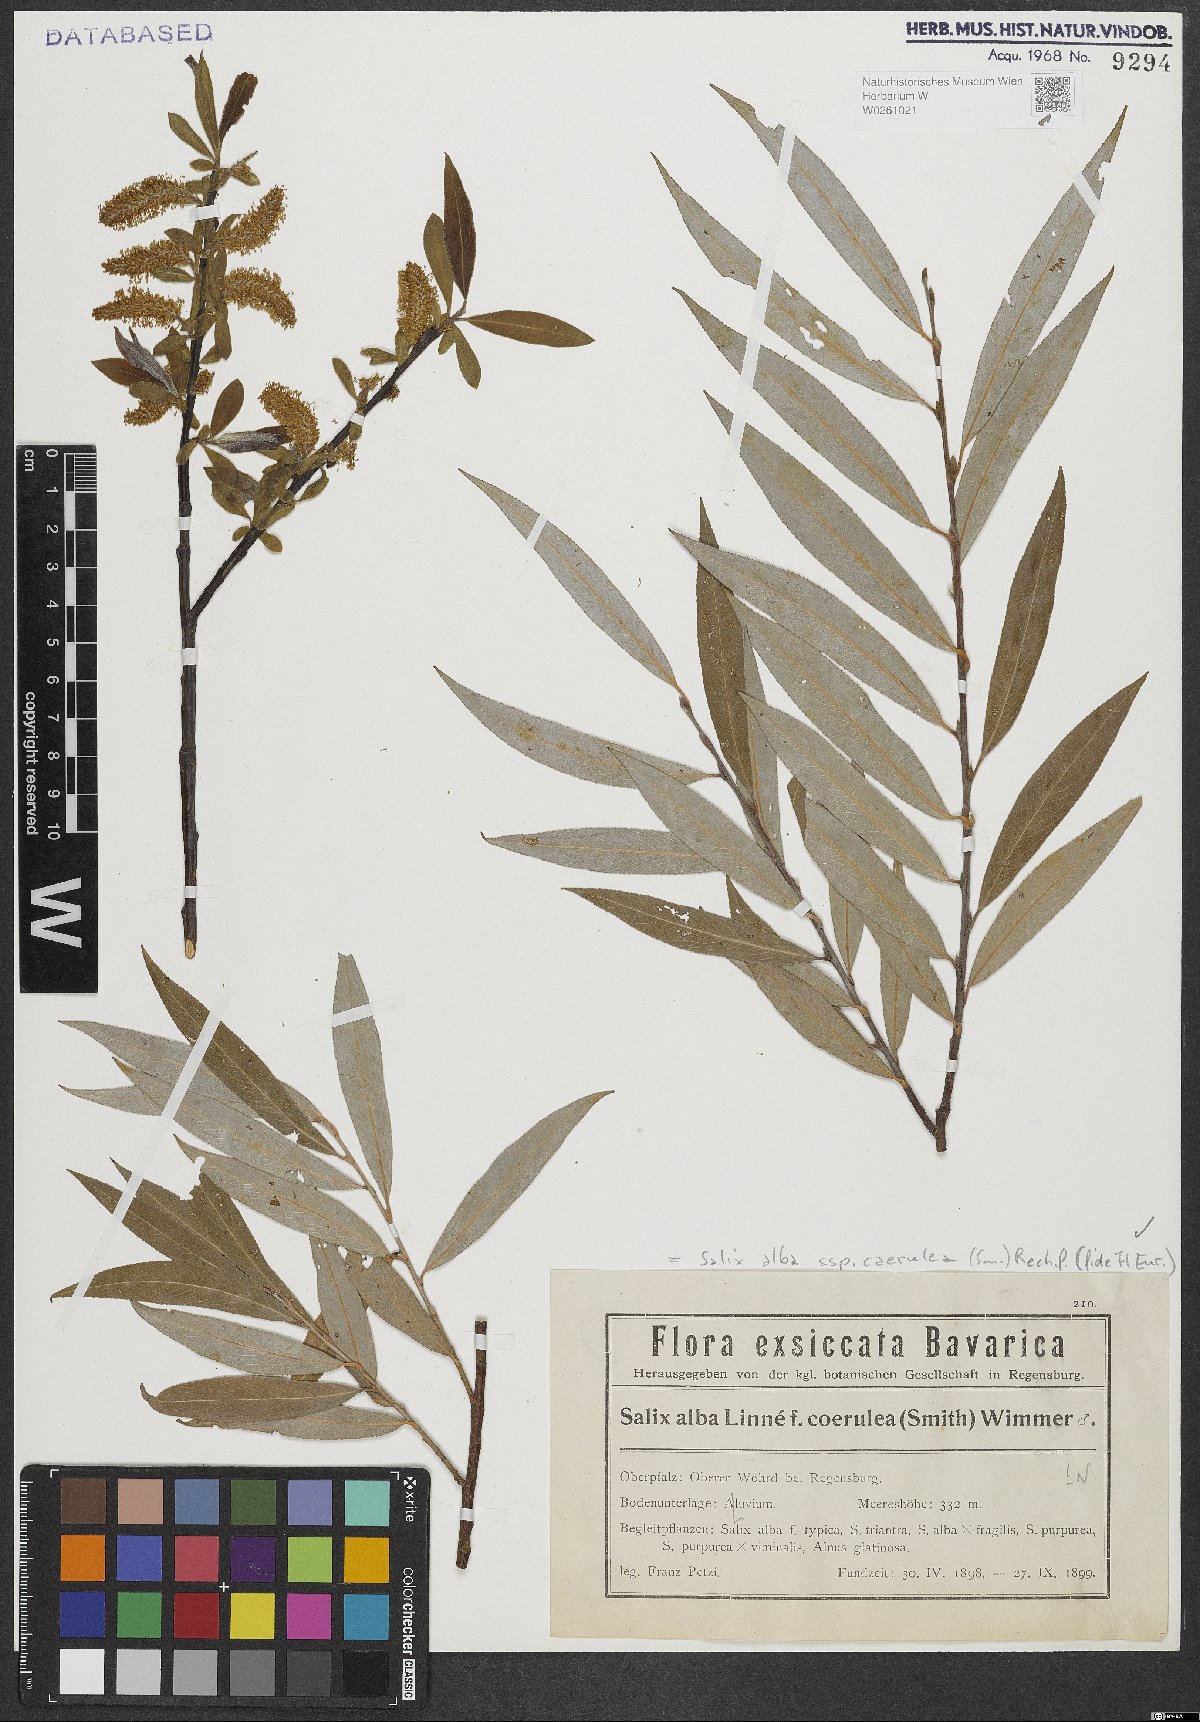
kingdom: Plantae
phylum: Tracheophyta
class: Magnoliopsida
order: Malpighiales
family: Salicaceae
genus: Salix
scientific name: Salix alba
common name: White willow
